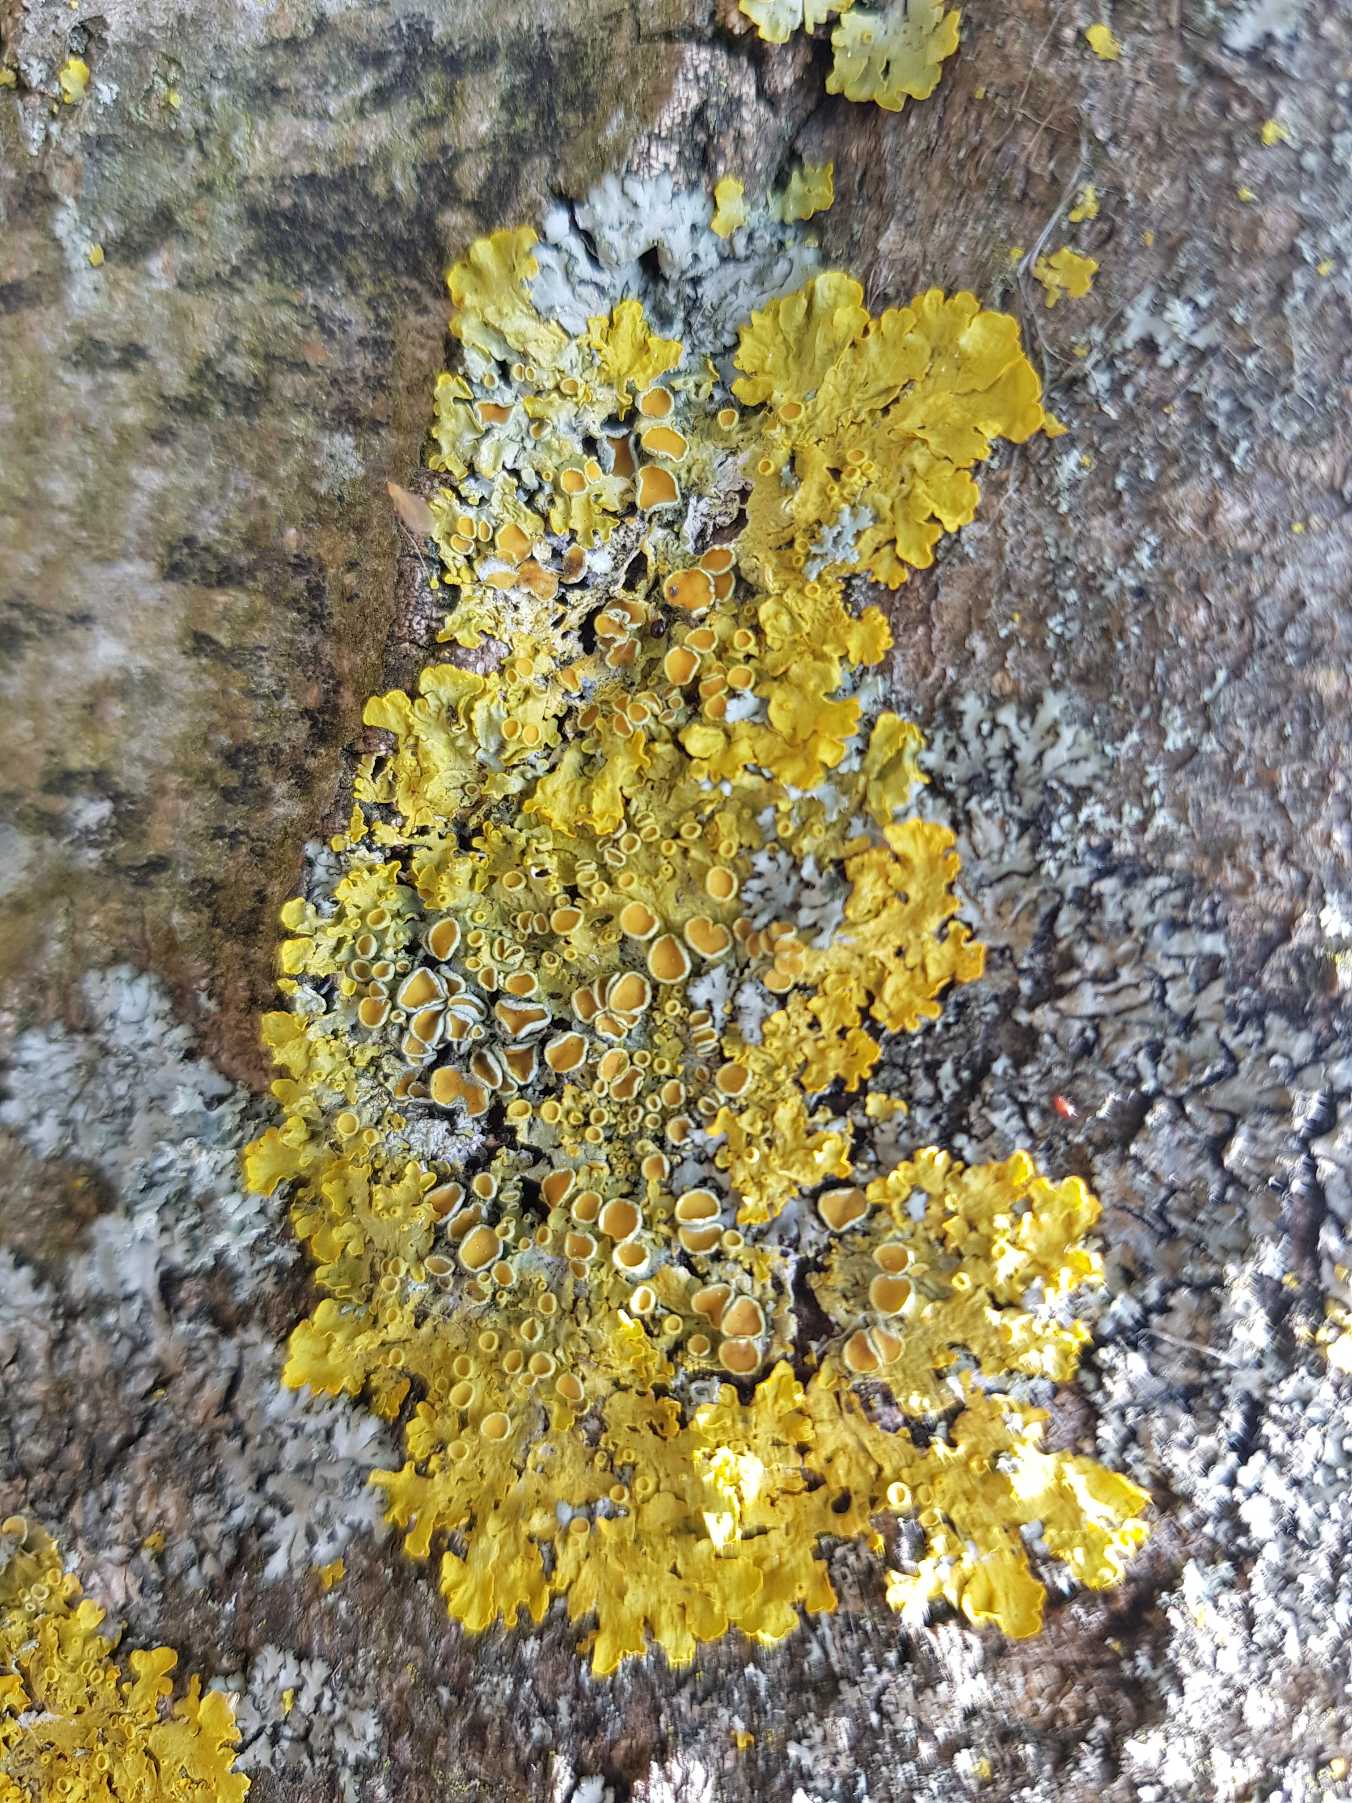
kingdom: Fungi
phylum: Ascomycota
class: Lecanoromycetes
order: Teloschistales
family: Teloschistaceae
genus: Xanthoria
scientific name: Xanthoria parietina
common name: Almindelig væggelav
